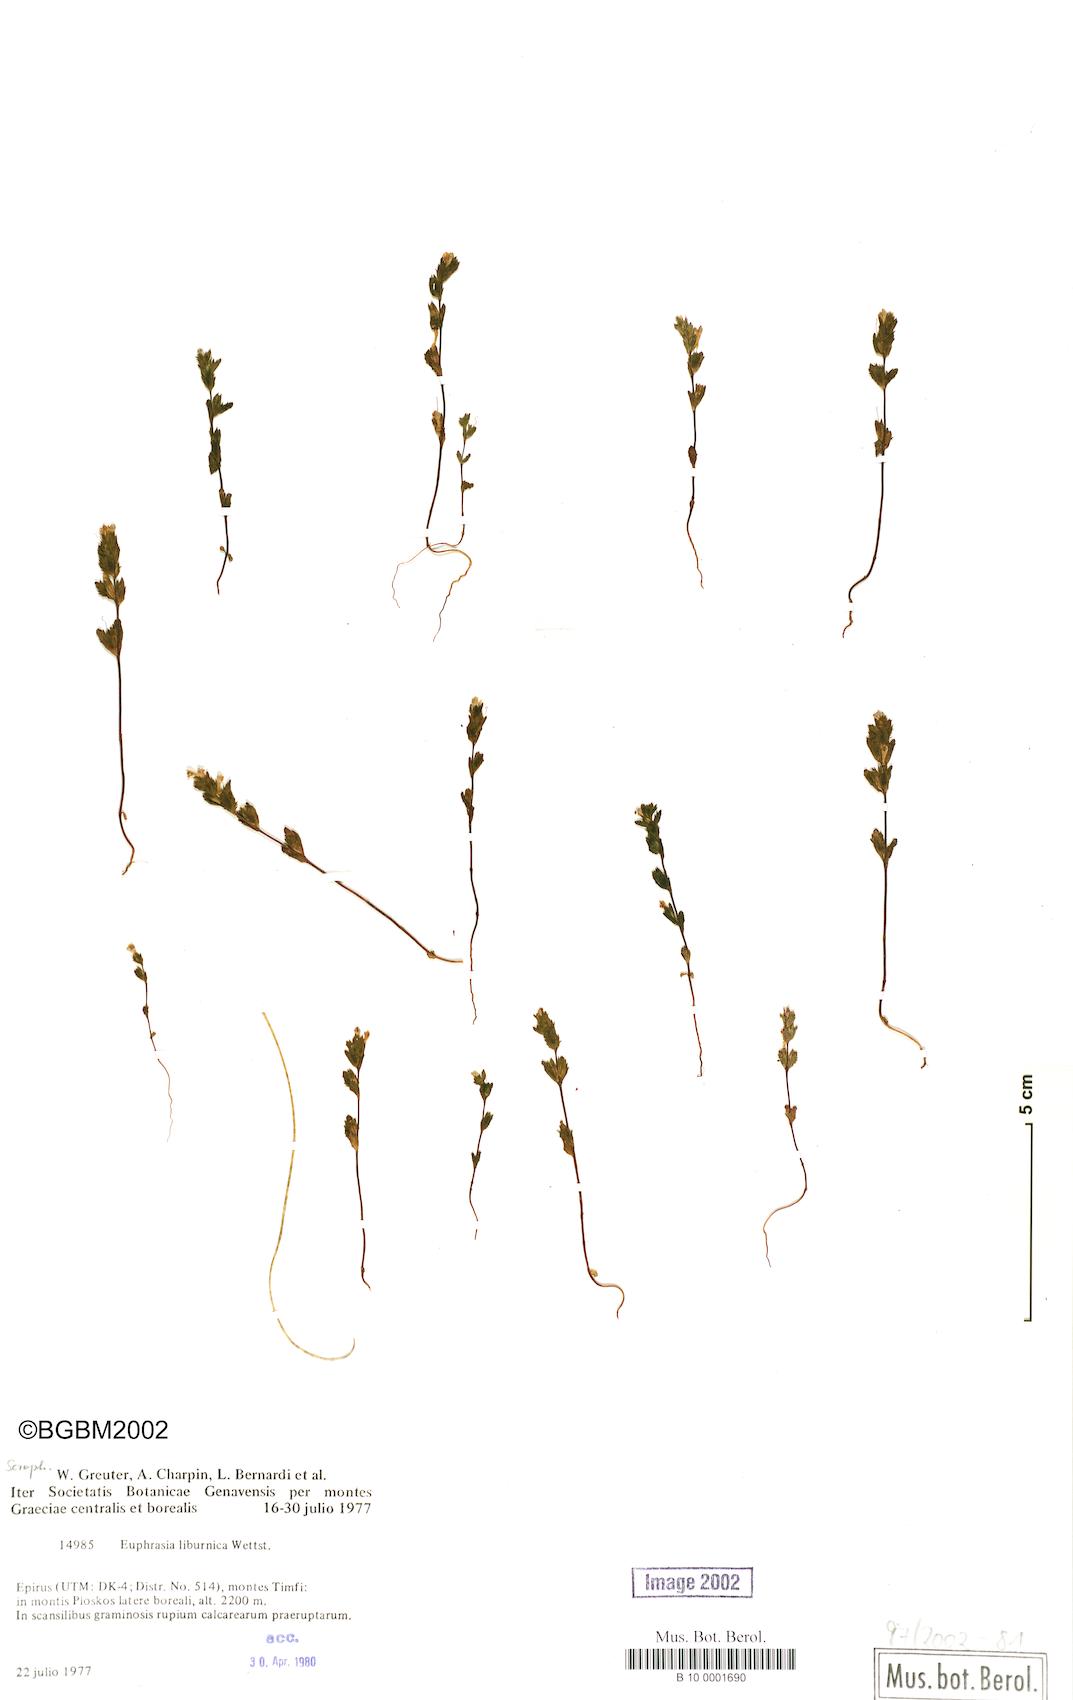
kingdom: Plantae
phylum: Tracheophyta
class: Magnoliopsida
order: Lamiales
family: Orobanchaceae
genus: Euphrasia
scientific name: Euphrasia liburnica
